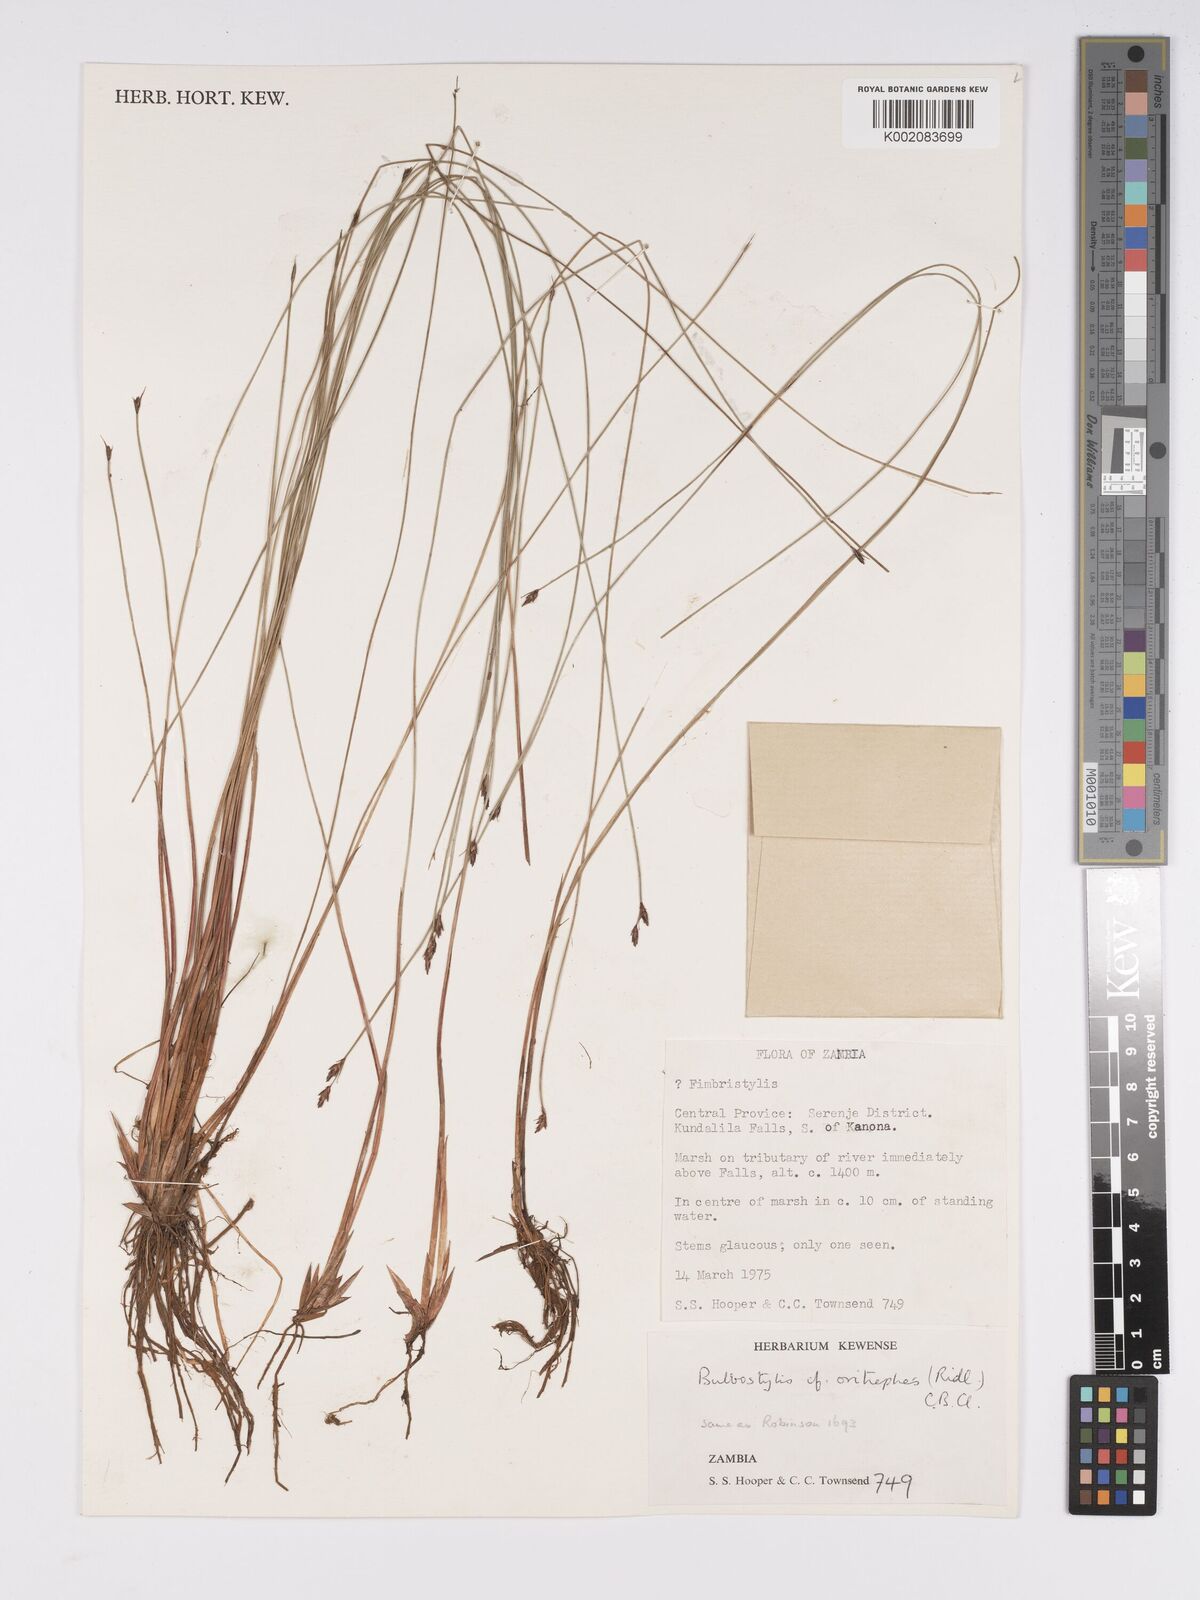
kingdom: Plantae
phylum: Tracheophyta
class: Liliopsida
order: Poales
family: Cyperaceae
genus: Bulbostylis
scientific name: Bulbostylis oritrephes
